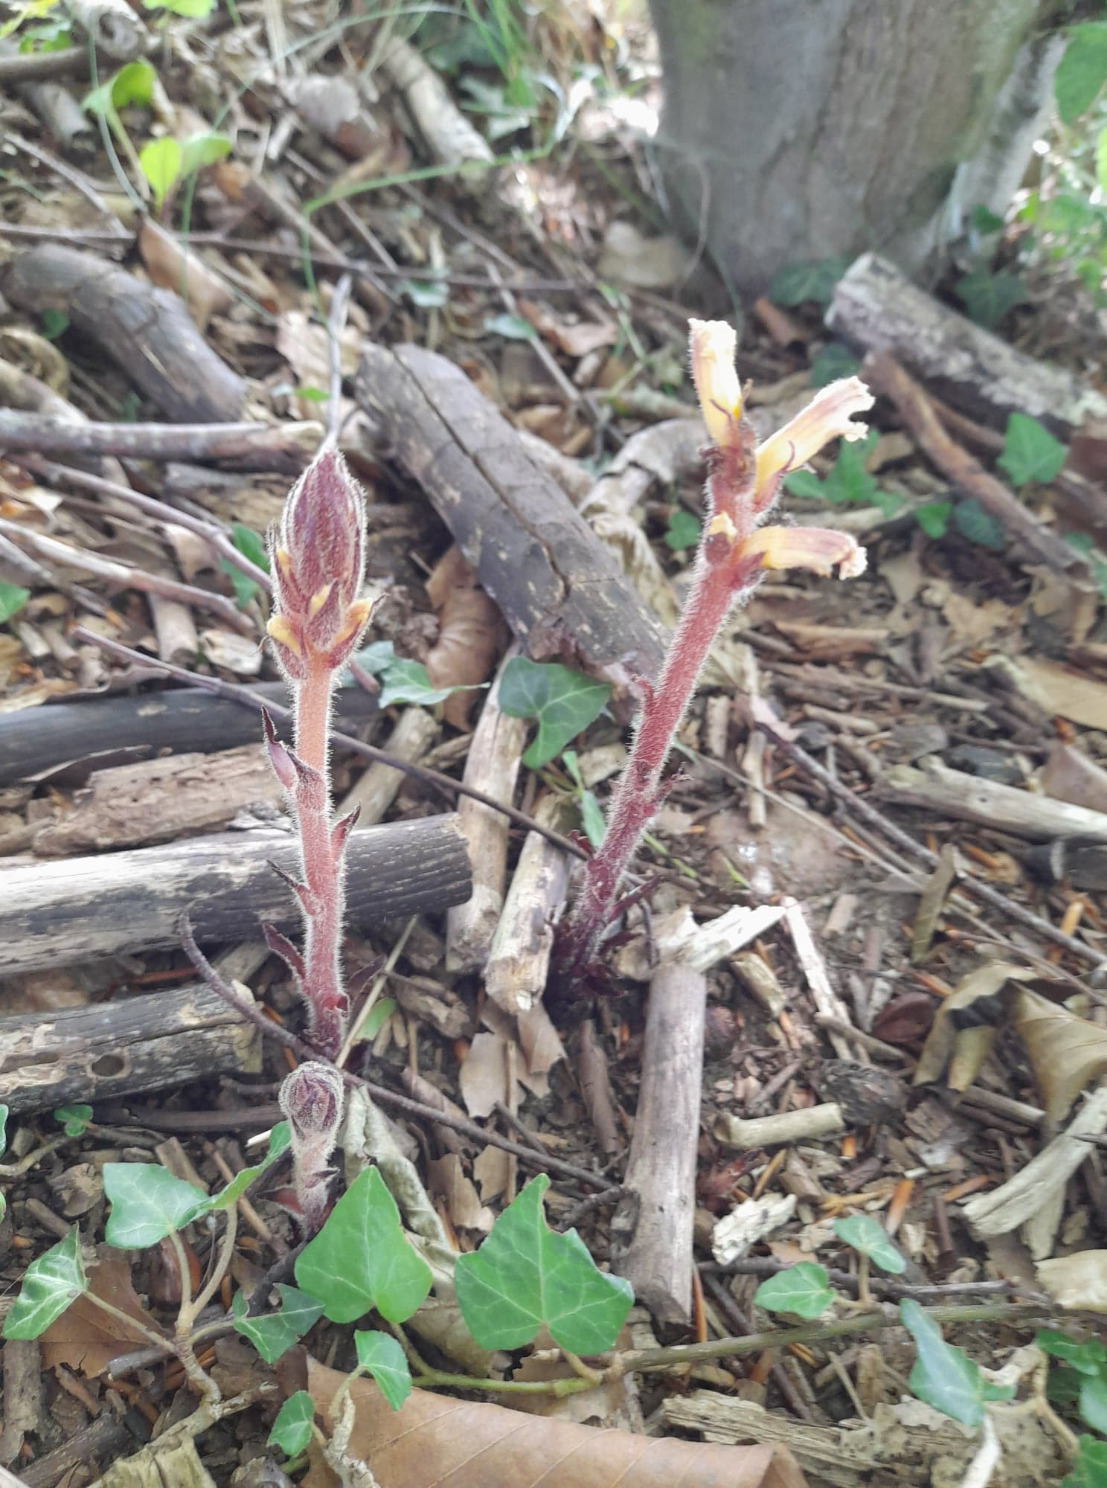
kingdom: Plantae
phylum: Tracheophyta
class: Magnoliopsida
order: Lamiales
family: Orobanchaceae
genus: Orobanche
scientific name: Orobanche hederae
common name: Vedbend-gyvelkvæler
